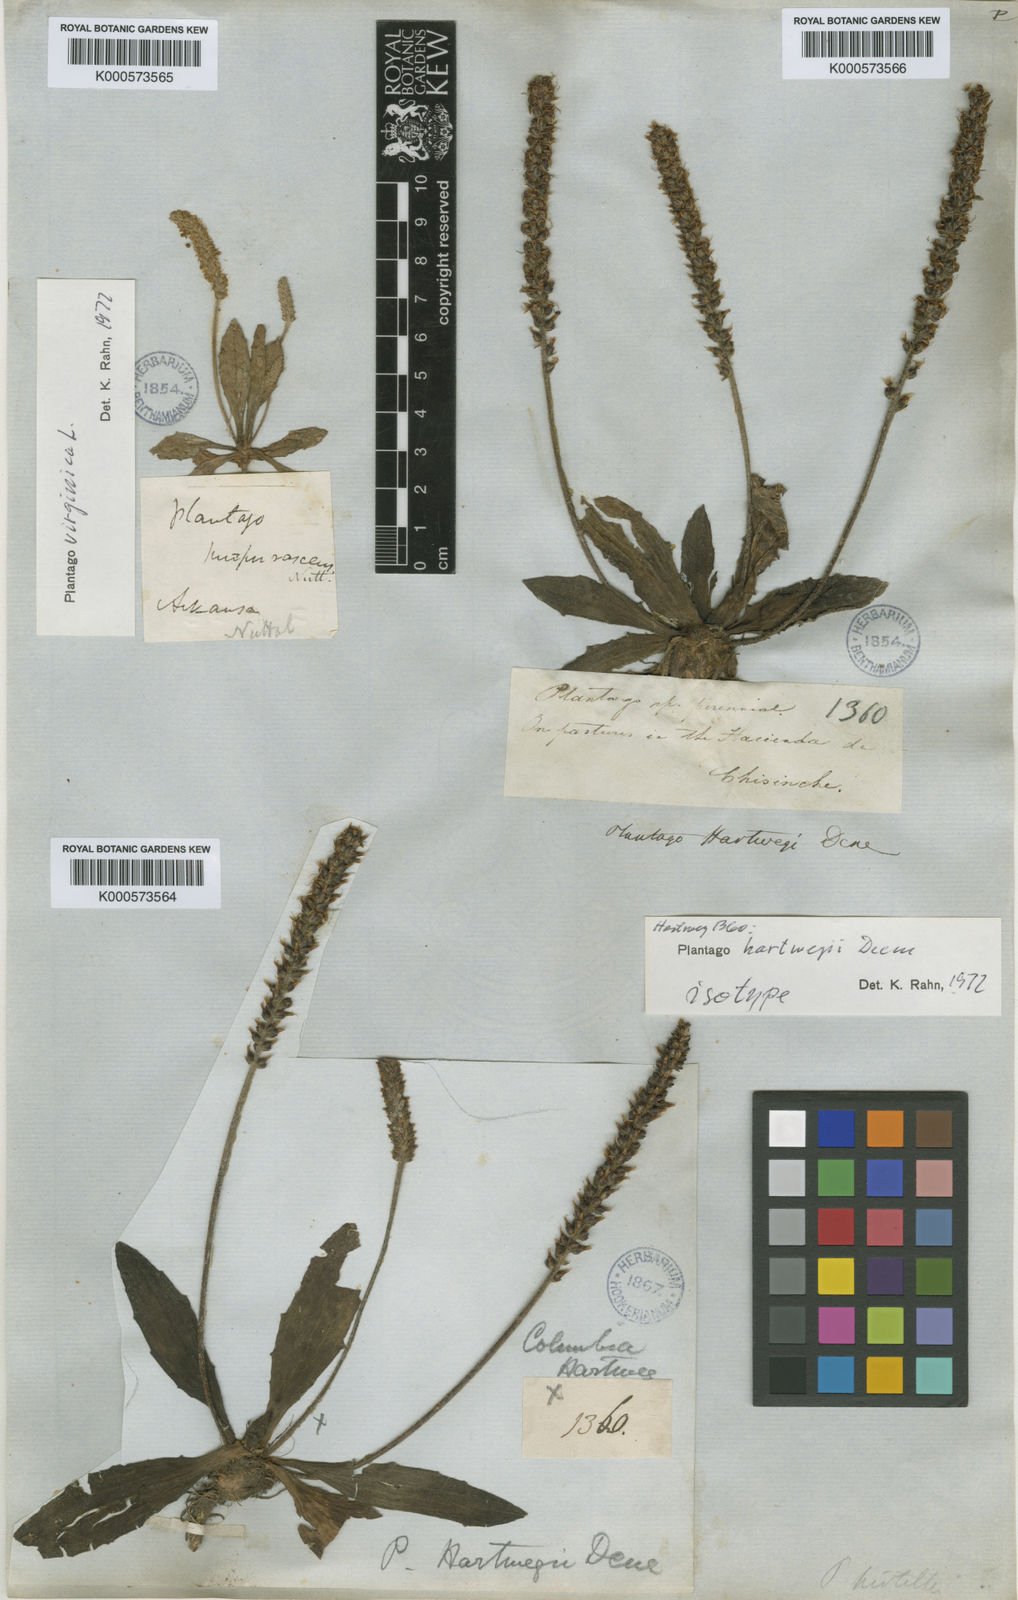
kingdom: Plantae
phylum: Tracheophyta
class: Magnoliopsida
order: Lamiales
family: Plantaginaceae
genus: Plantago
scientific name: Plantago orbignyana
